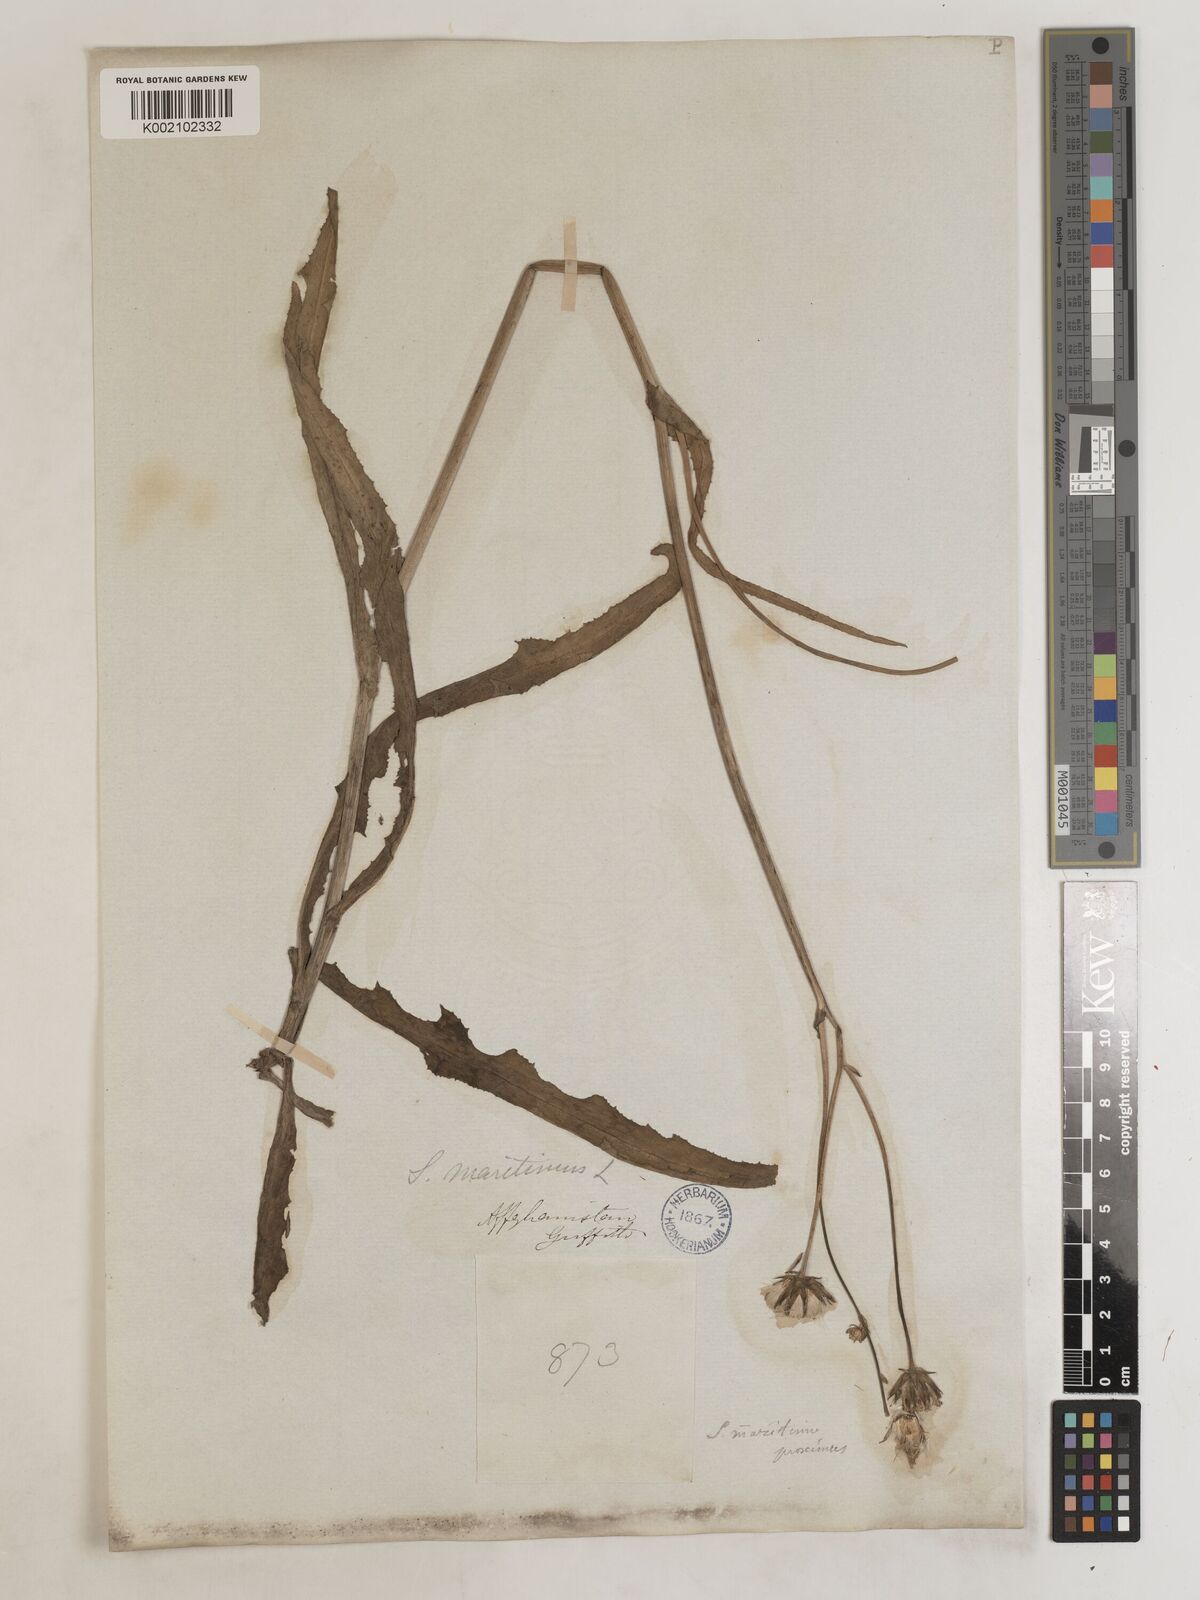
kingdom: Plantae
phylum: Tracheophyta
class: Magnoliopsida
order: Asterales
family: Asteraceae
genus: Sonchus
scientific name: Sonchus maritimus
